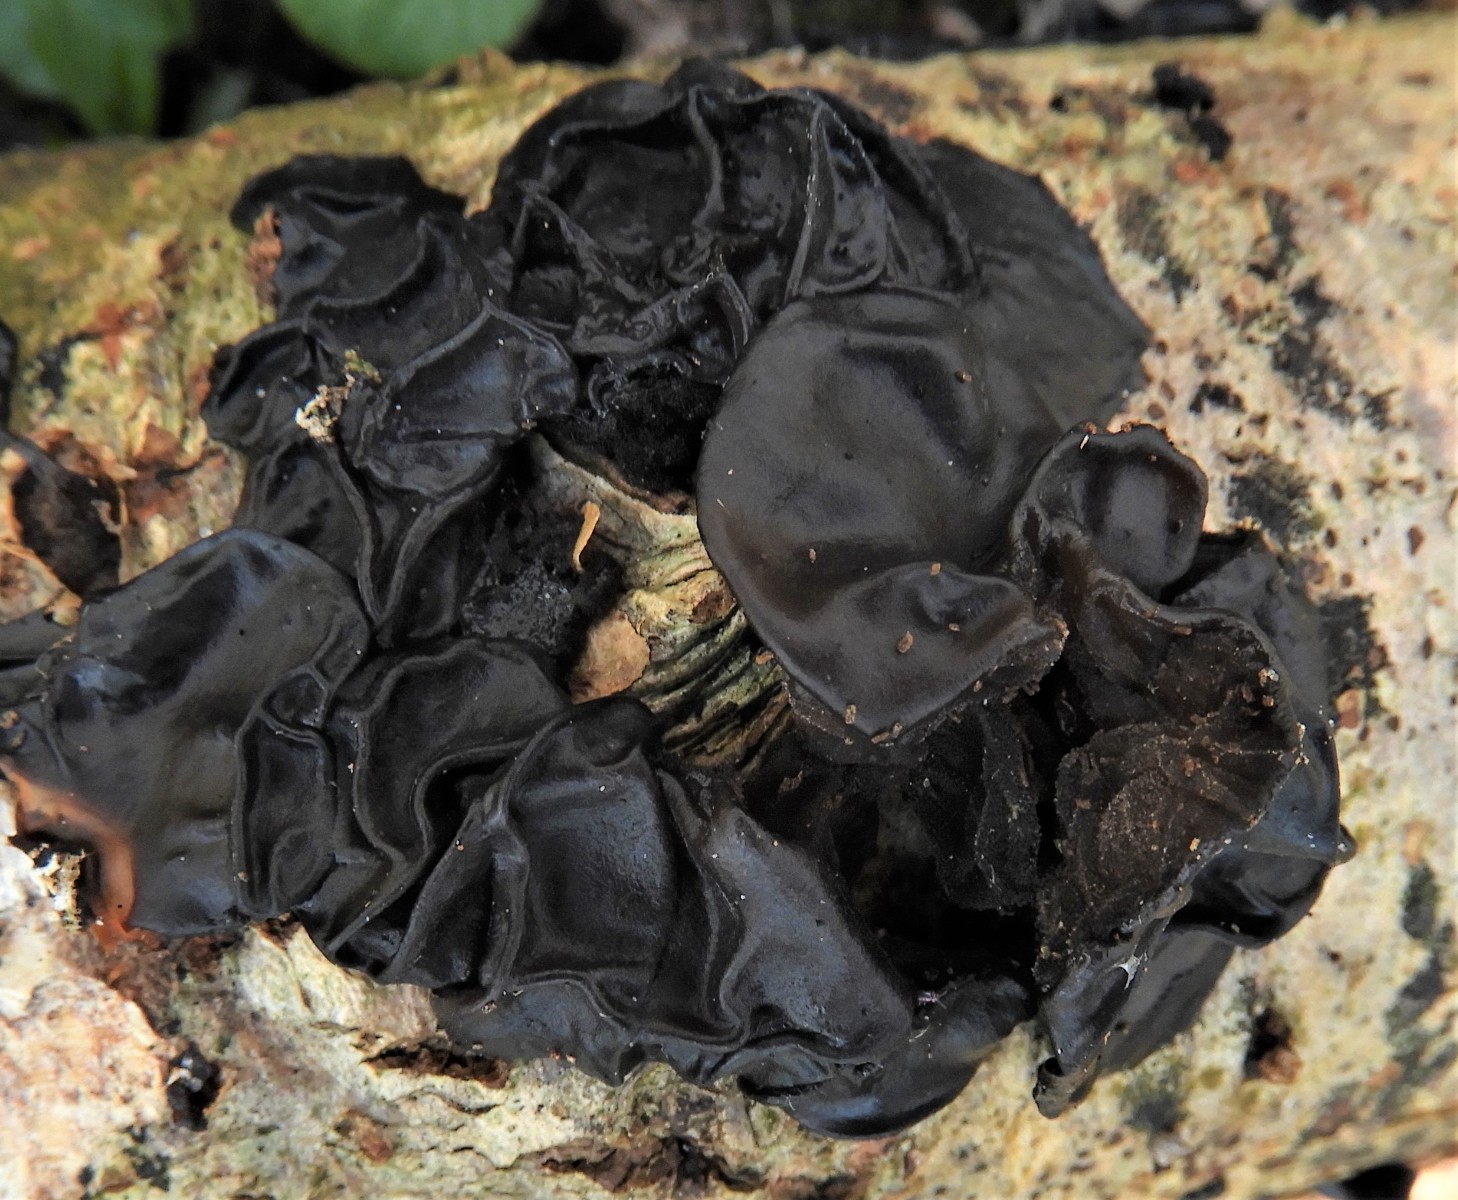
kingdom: Fungi
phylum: Basidiomycota
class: Agaricomycetes
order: Auriculariales
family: Auriculariaceae
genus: Exidia
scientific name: Exidia glandulosa
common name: ege-bævretop
